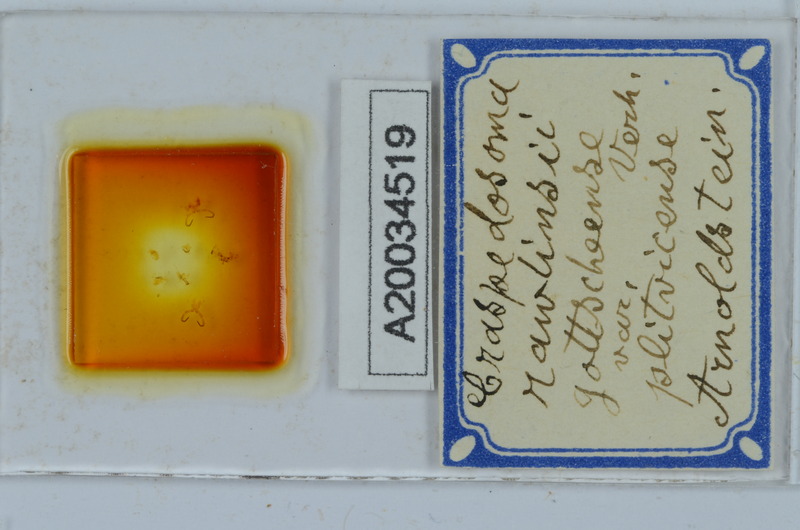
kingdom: Animalia
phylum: Arthropoda
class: Diplopoda
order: Chordeumatida
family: Craspedosomatidae
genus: Craspedosoma
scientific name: Craspedosoma slavum
